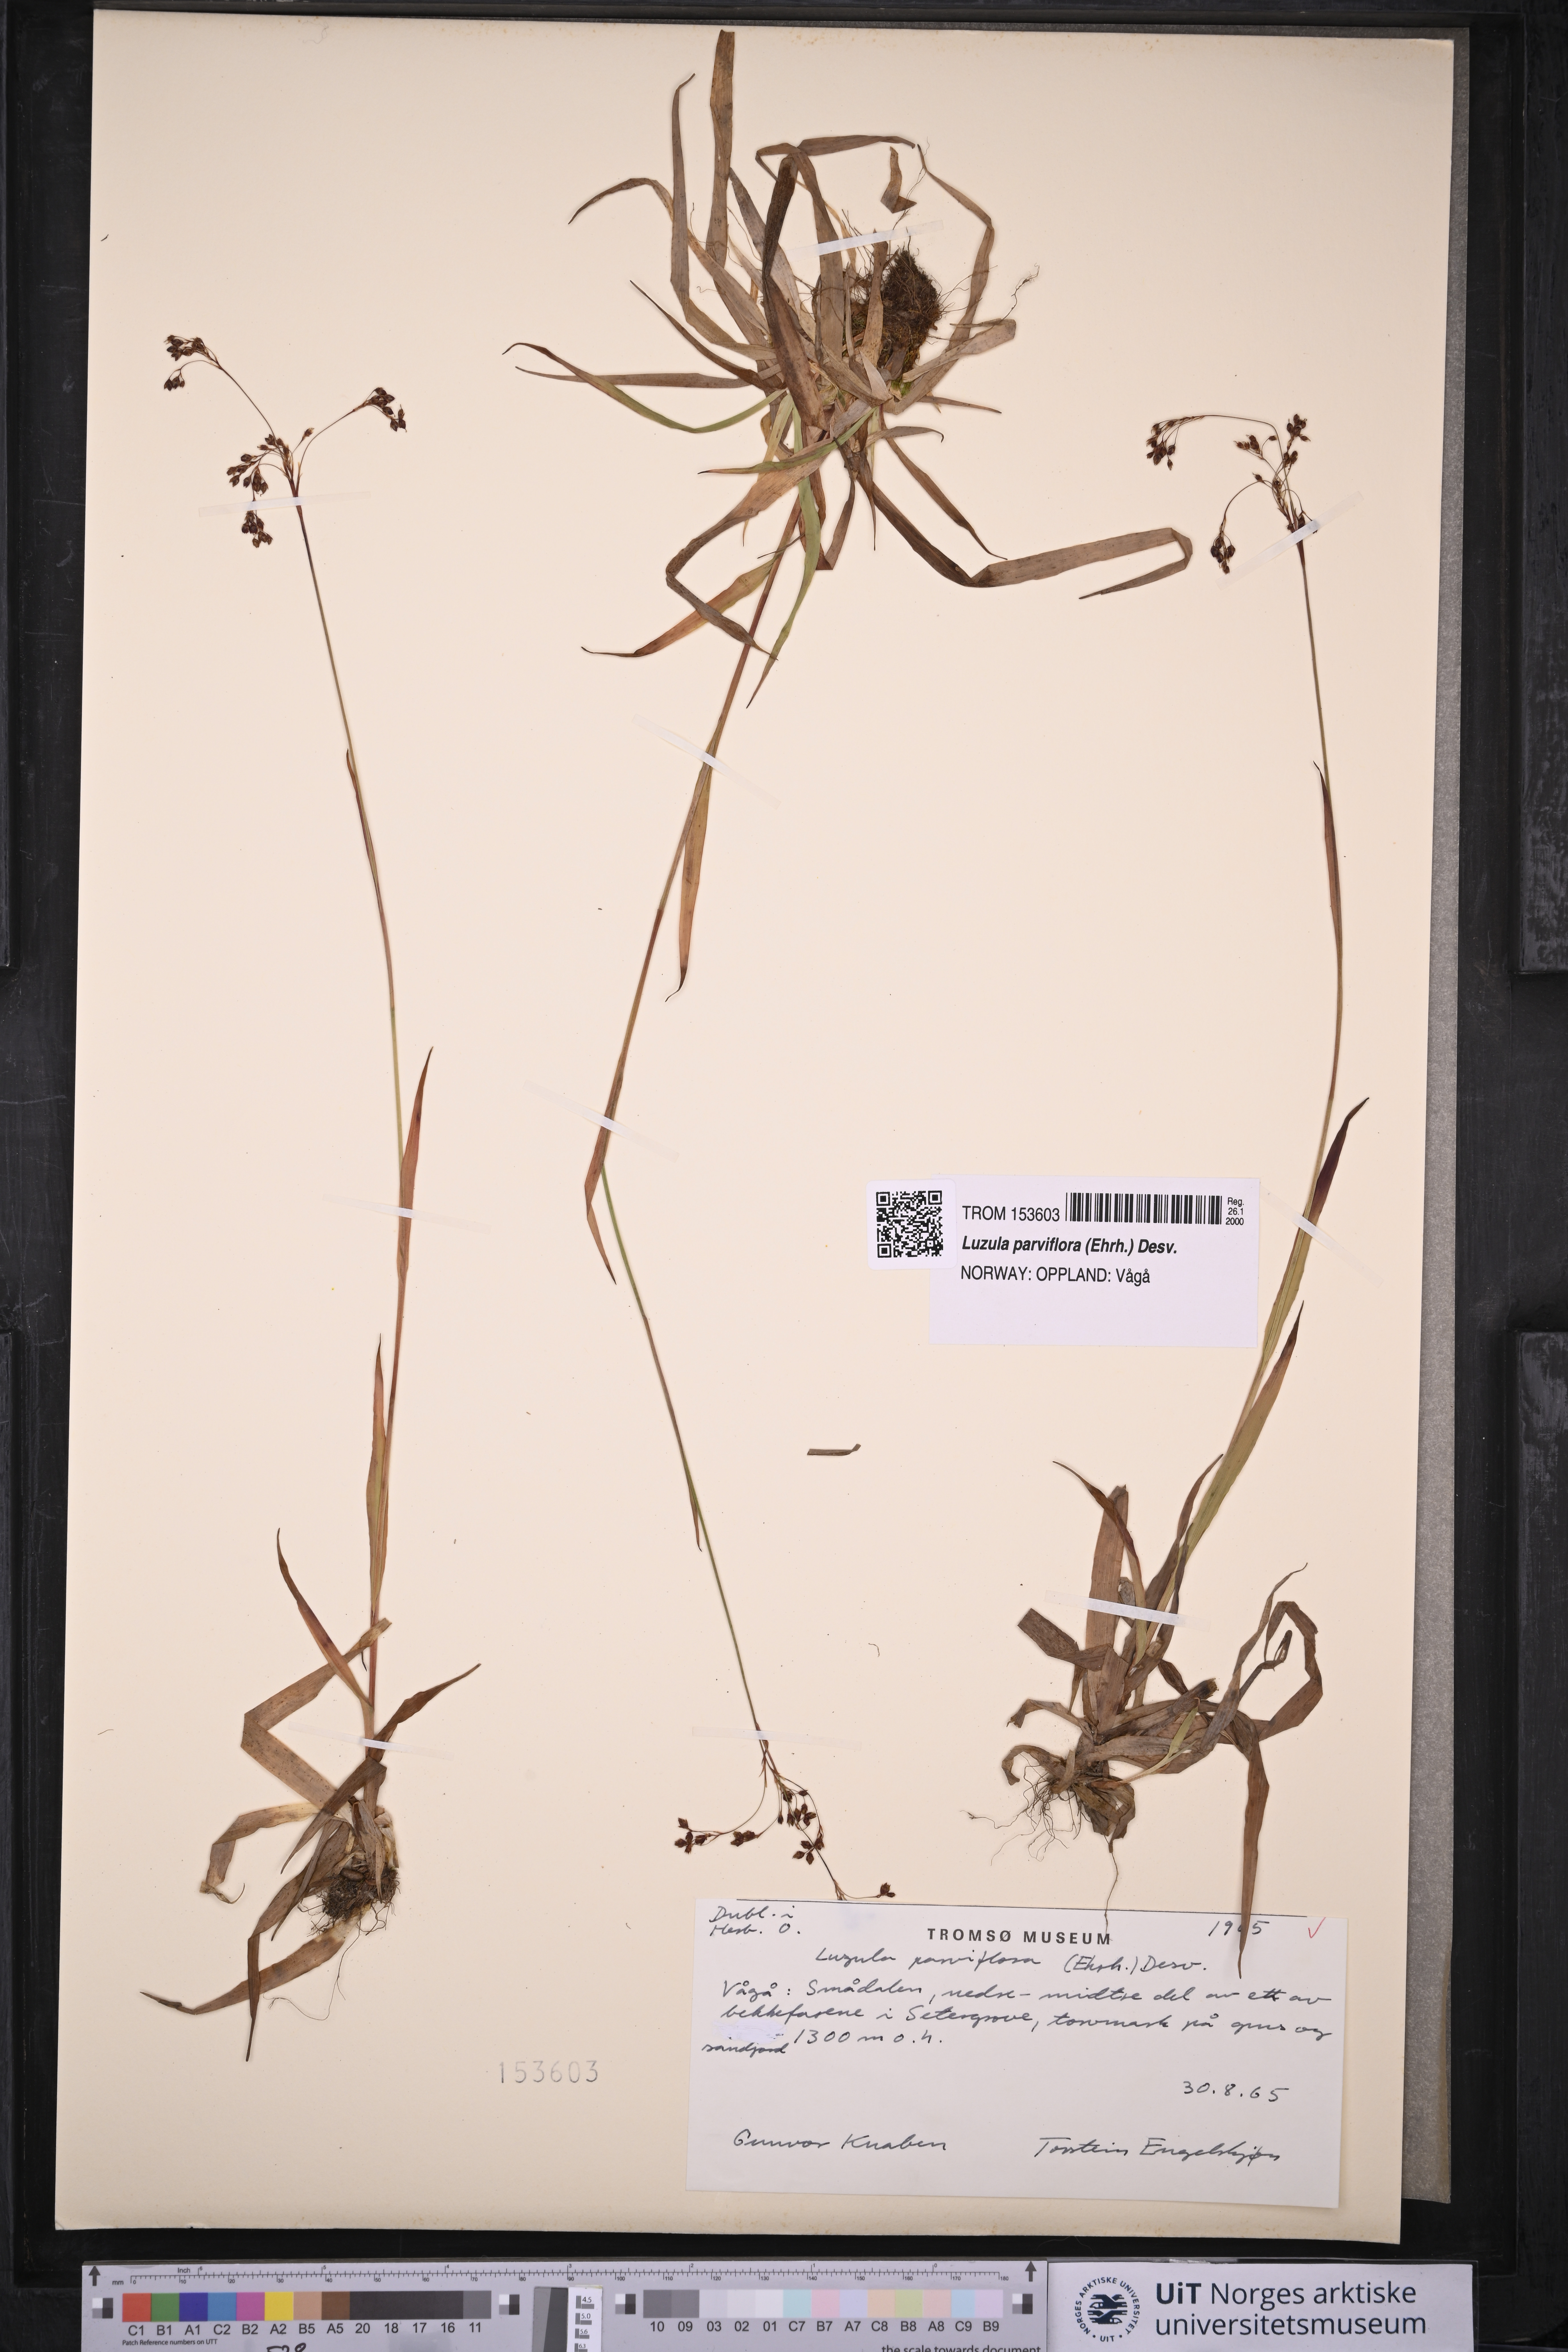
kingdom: Plantae
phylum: Tracheophyta
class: Liliopsida
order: Poales
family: Juncaceae
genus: Luzula
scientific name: Luzula parviflora
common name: Millet woodrush
